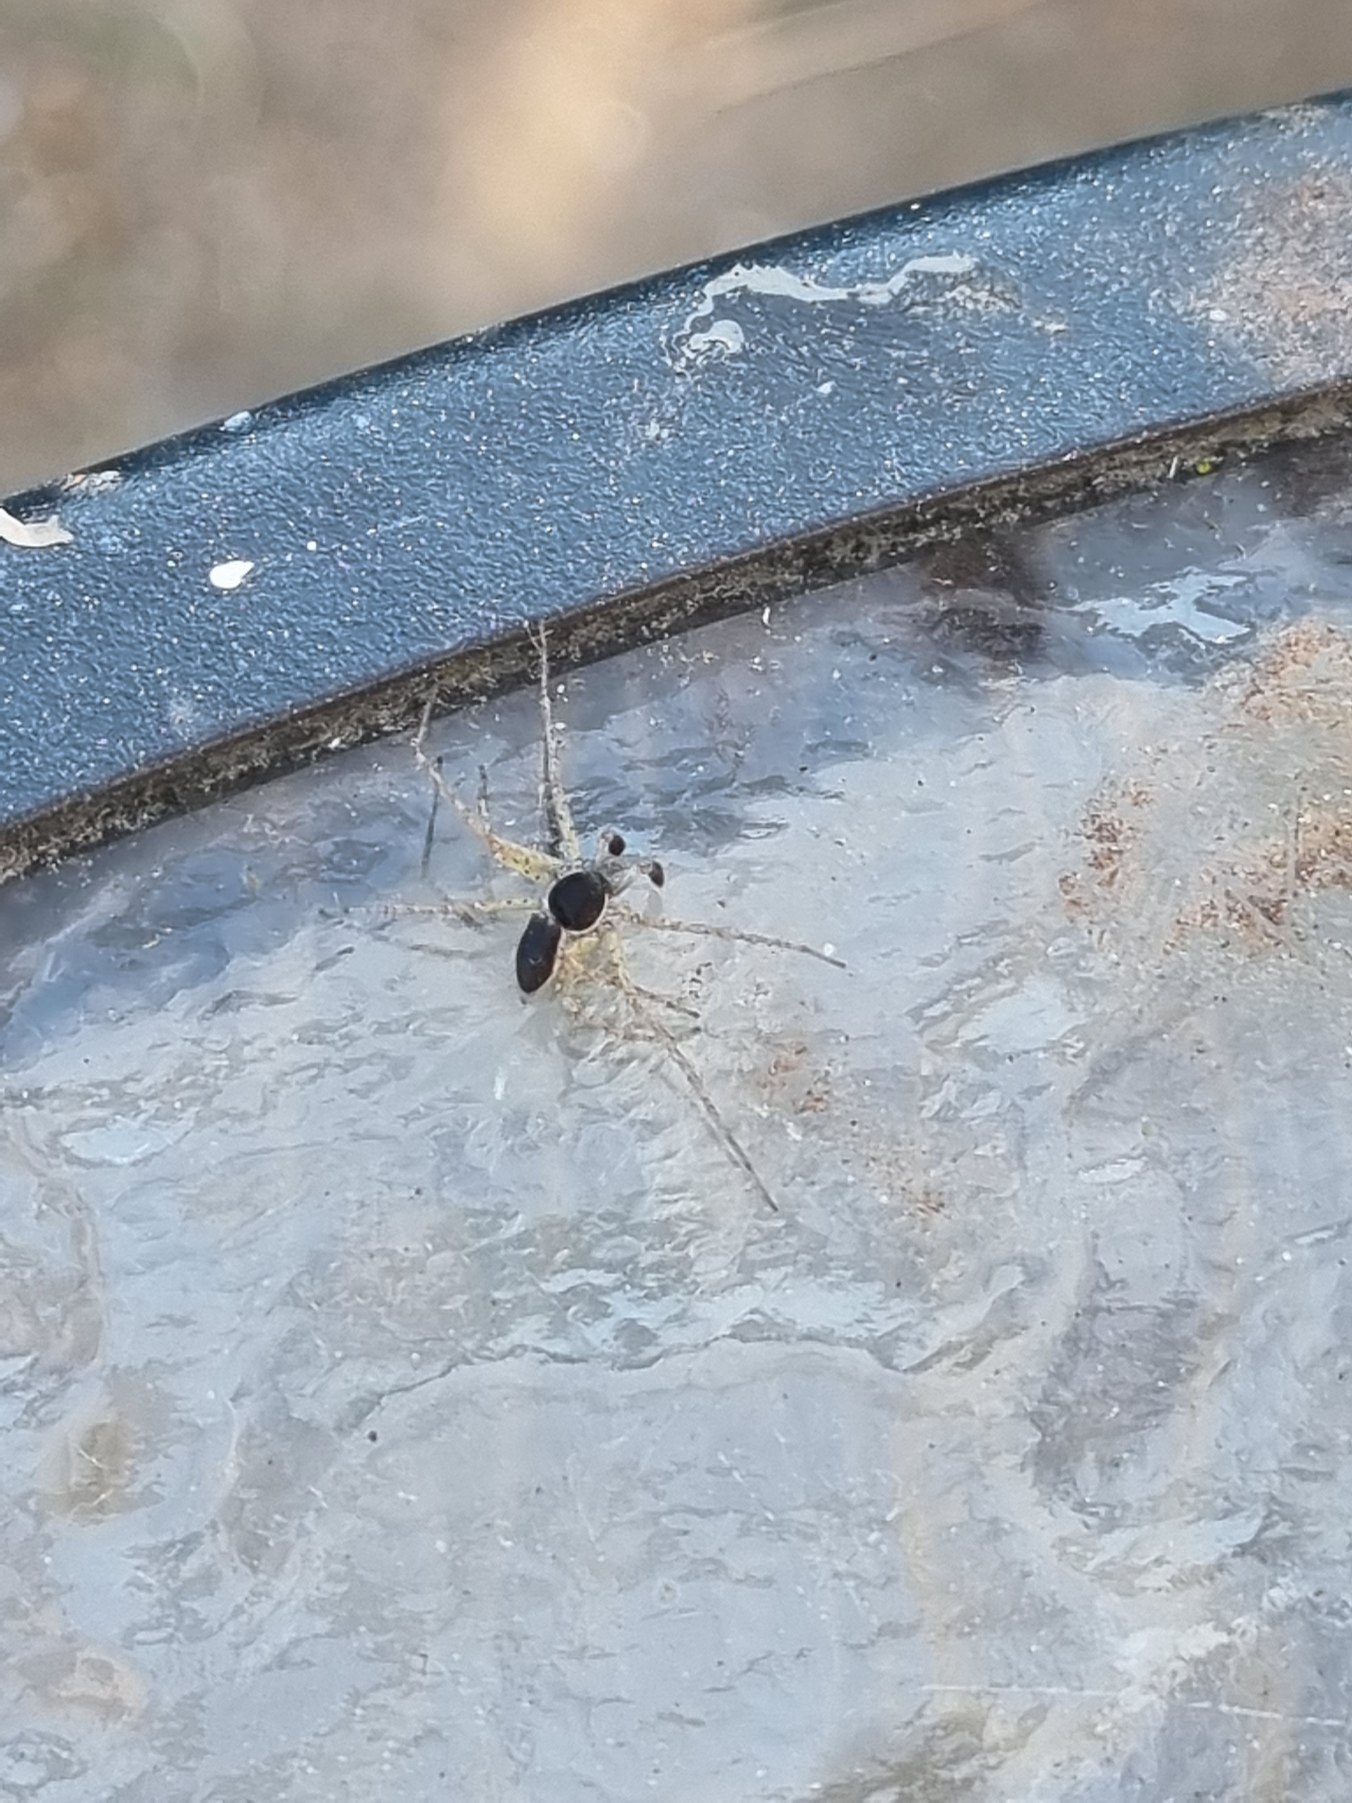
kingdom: Animalia
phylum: Arthropoda
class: Arachnida
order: Araneae
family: Philodromidae
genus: Philodromus
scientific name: Philodromus dispar
